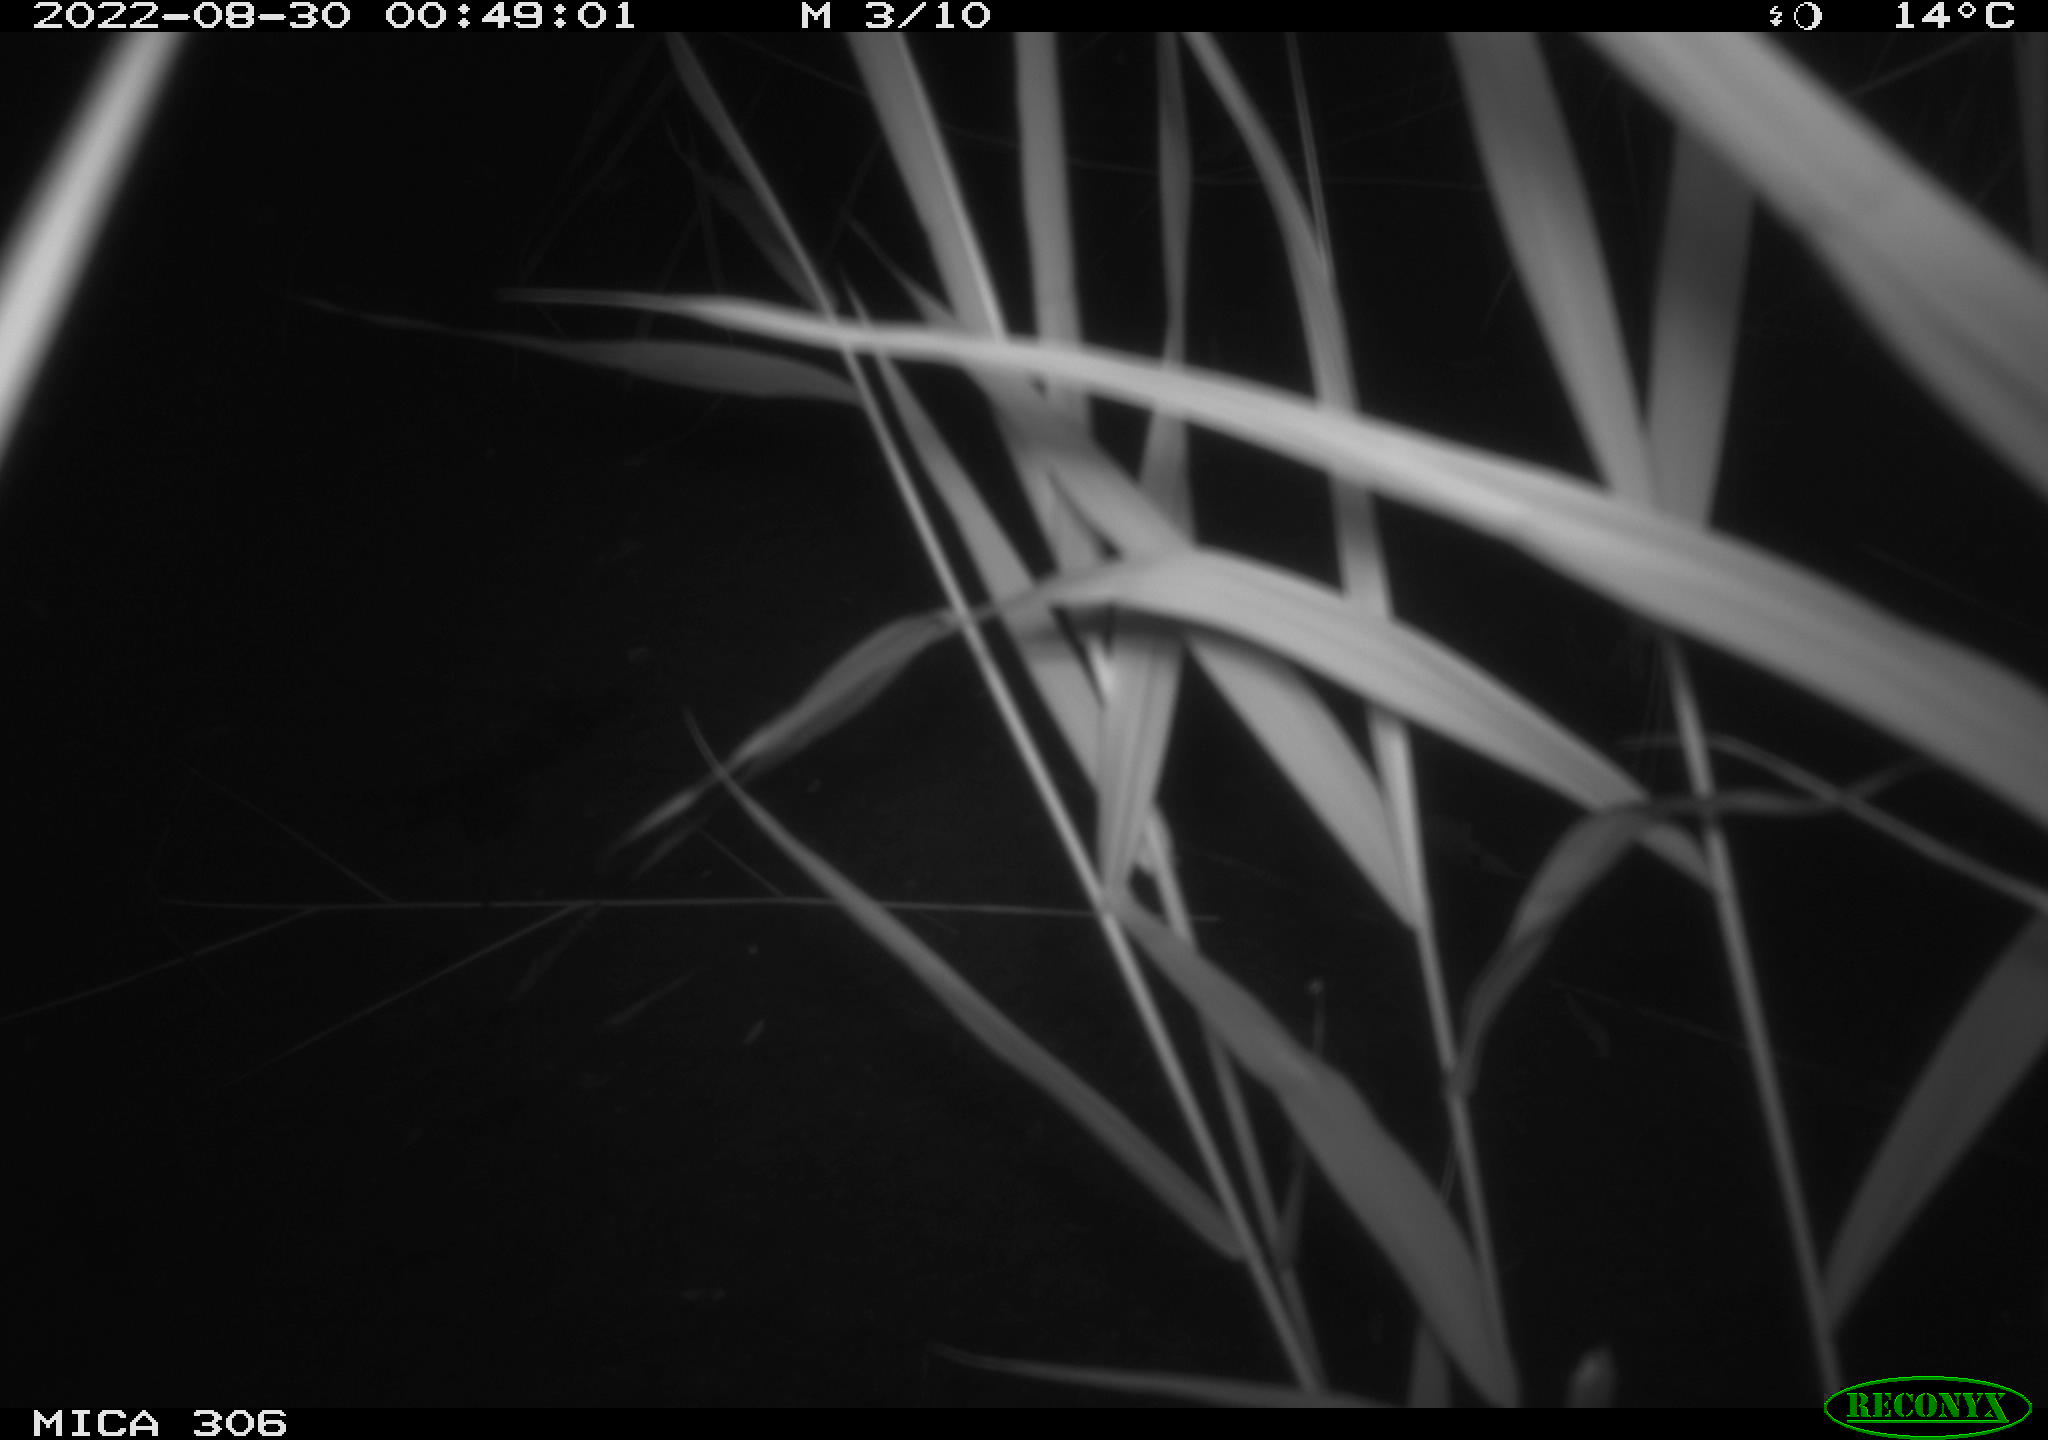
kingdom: Animalia
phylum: Chordata
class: Mammalia
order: Rodentia
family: Muridae
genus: Rattus
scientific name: Rattus norvegicus
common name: Brown rat
